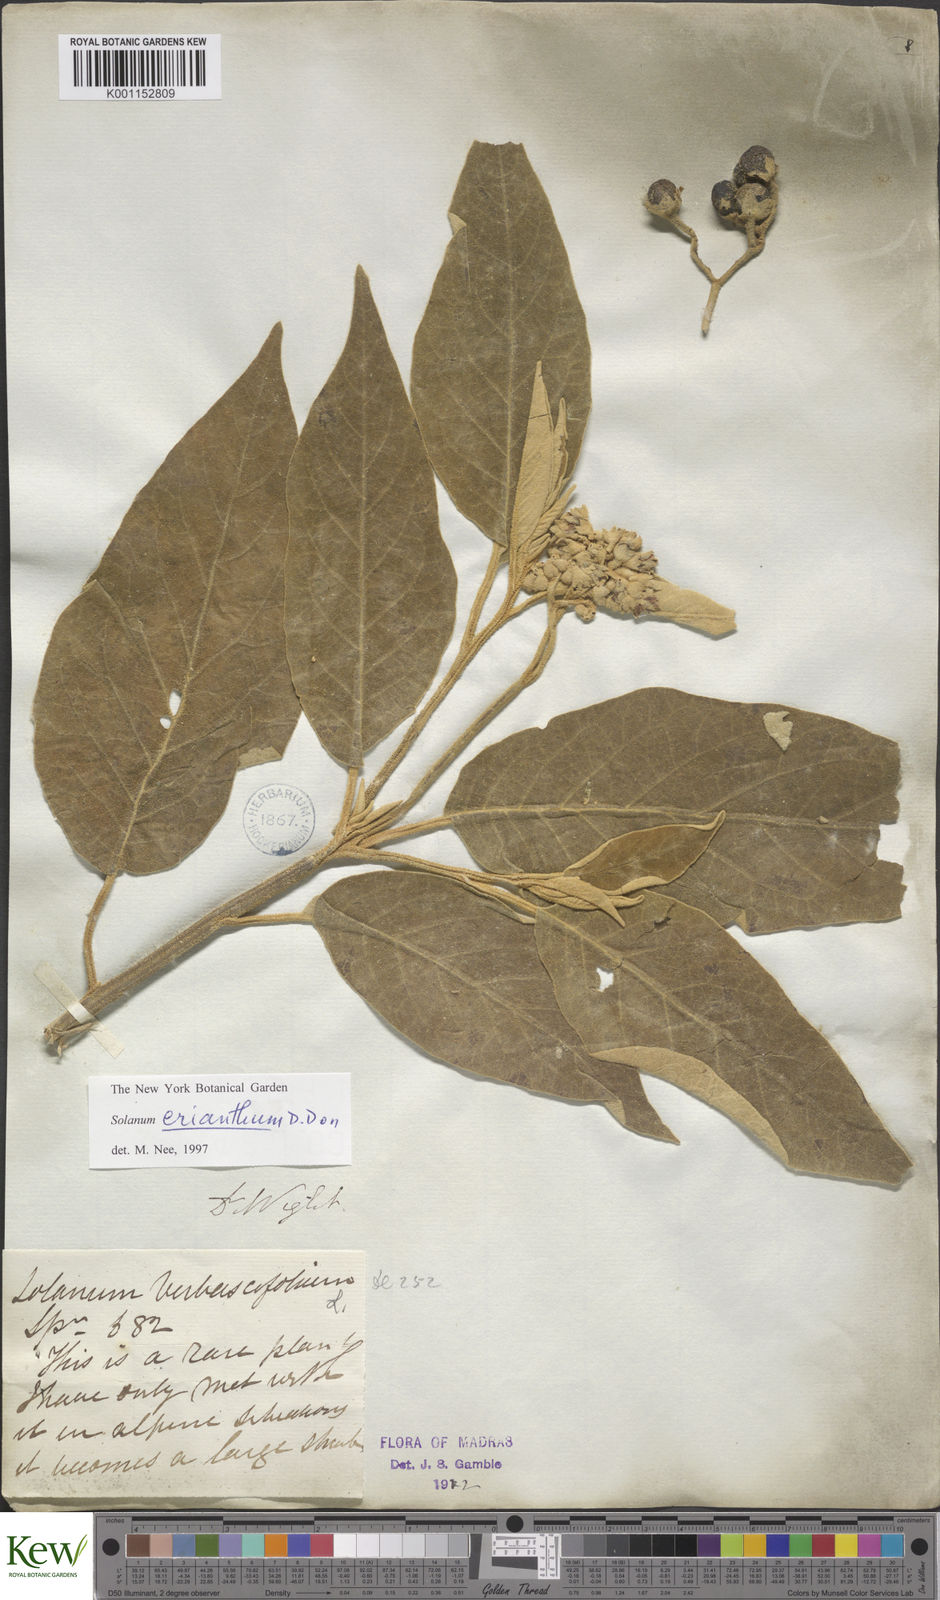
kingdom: Plantae
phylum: Tracheophyta
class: Magnoliopsida
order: Solanales
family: Solanaceae
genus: Solanum
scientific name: Solanum erianthum
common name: Tobacco-tree
